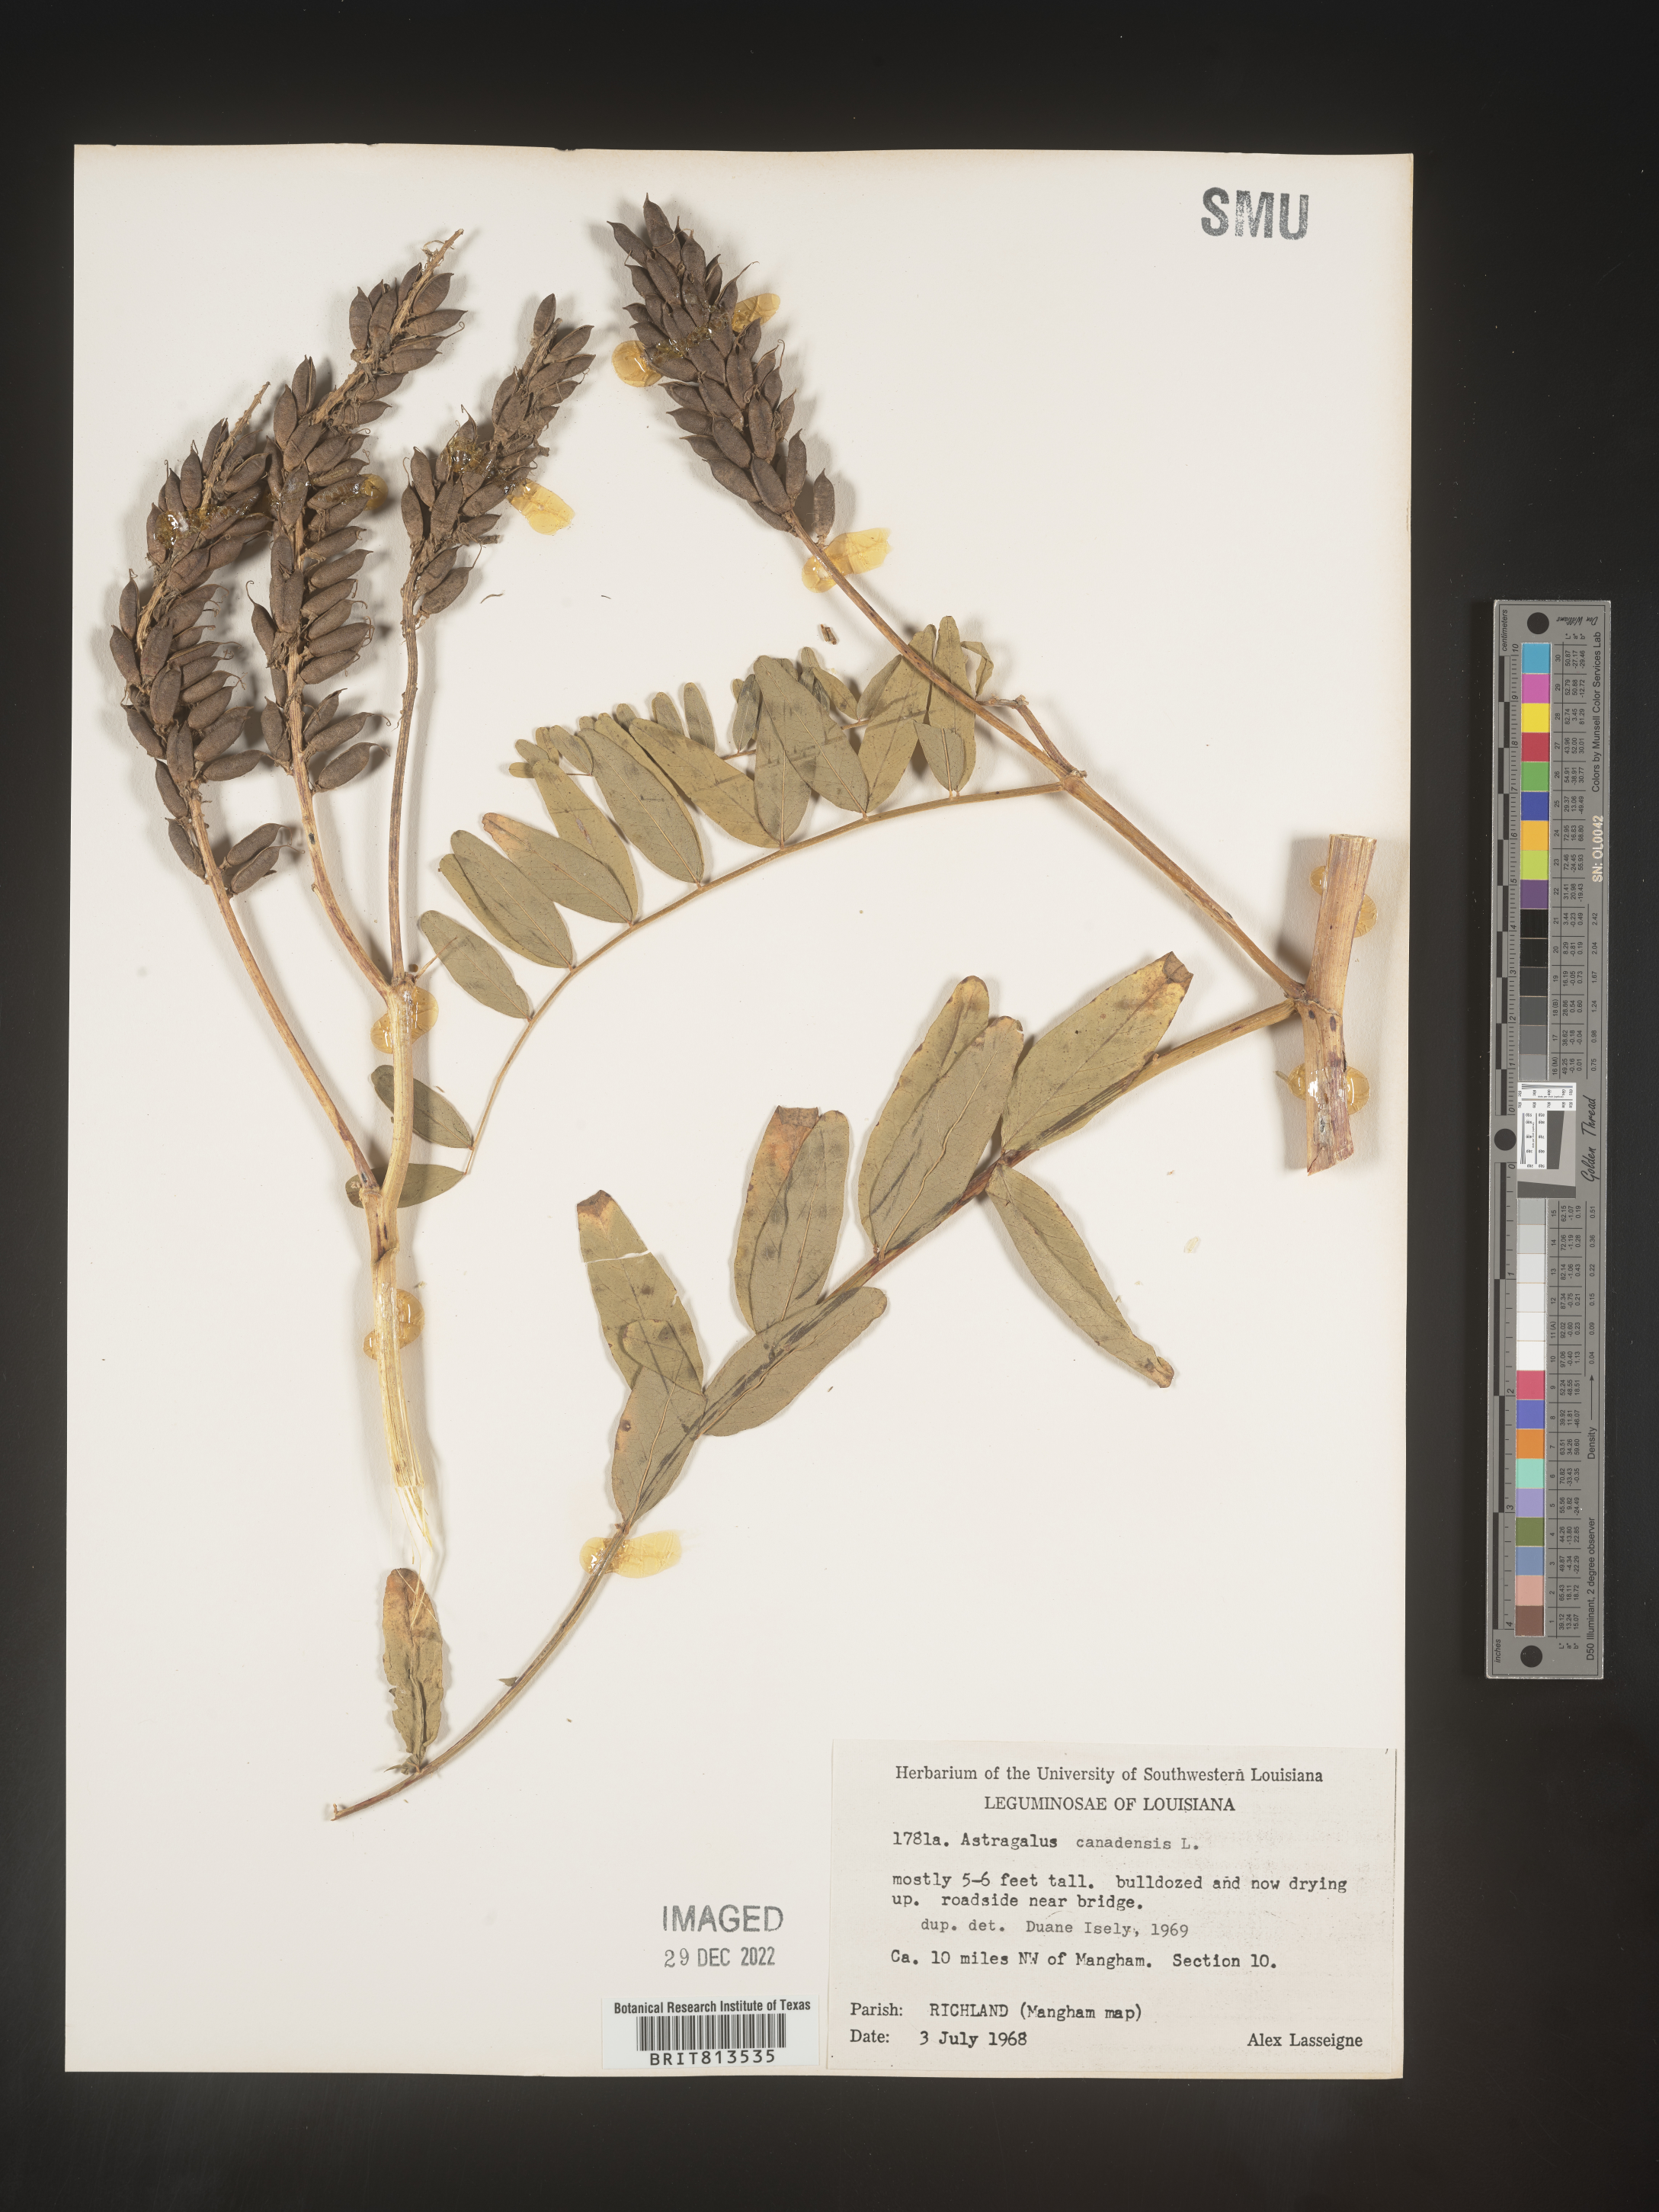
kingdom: Plantae
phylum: Tracheophyta
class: Magnoliopsida
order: Fabales
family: Fabaceae
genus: Astragalus
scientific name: Astragalus canadensis
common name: Canada milk-vetch
